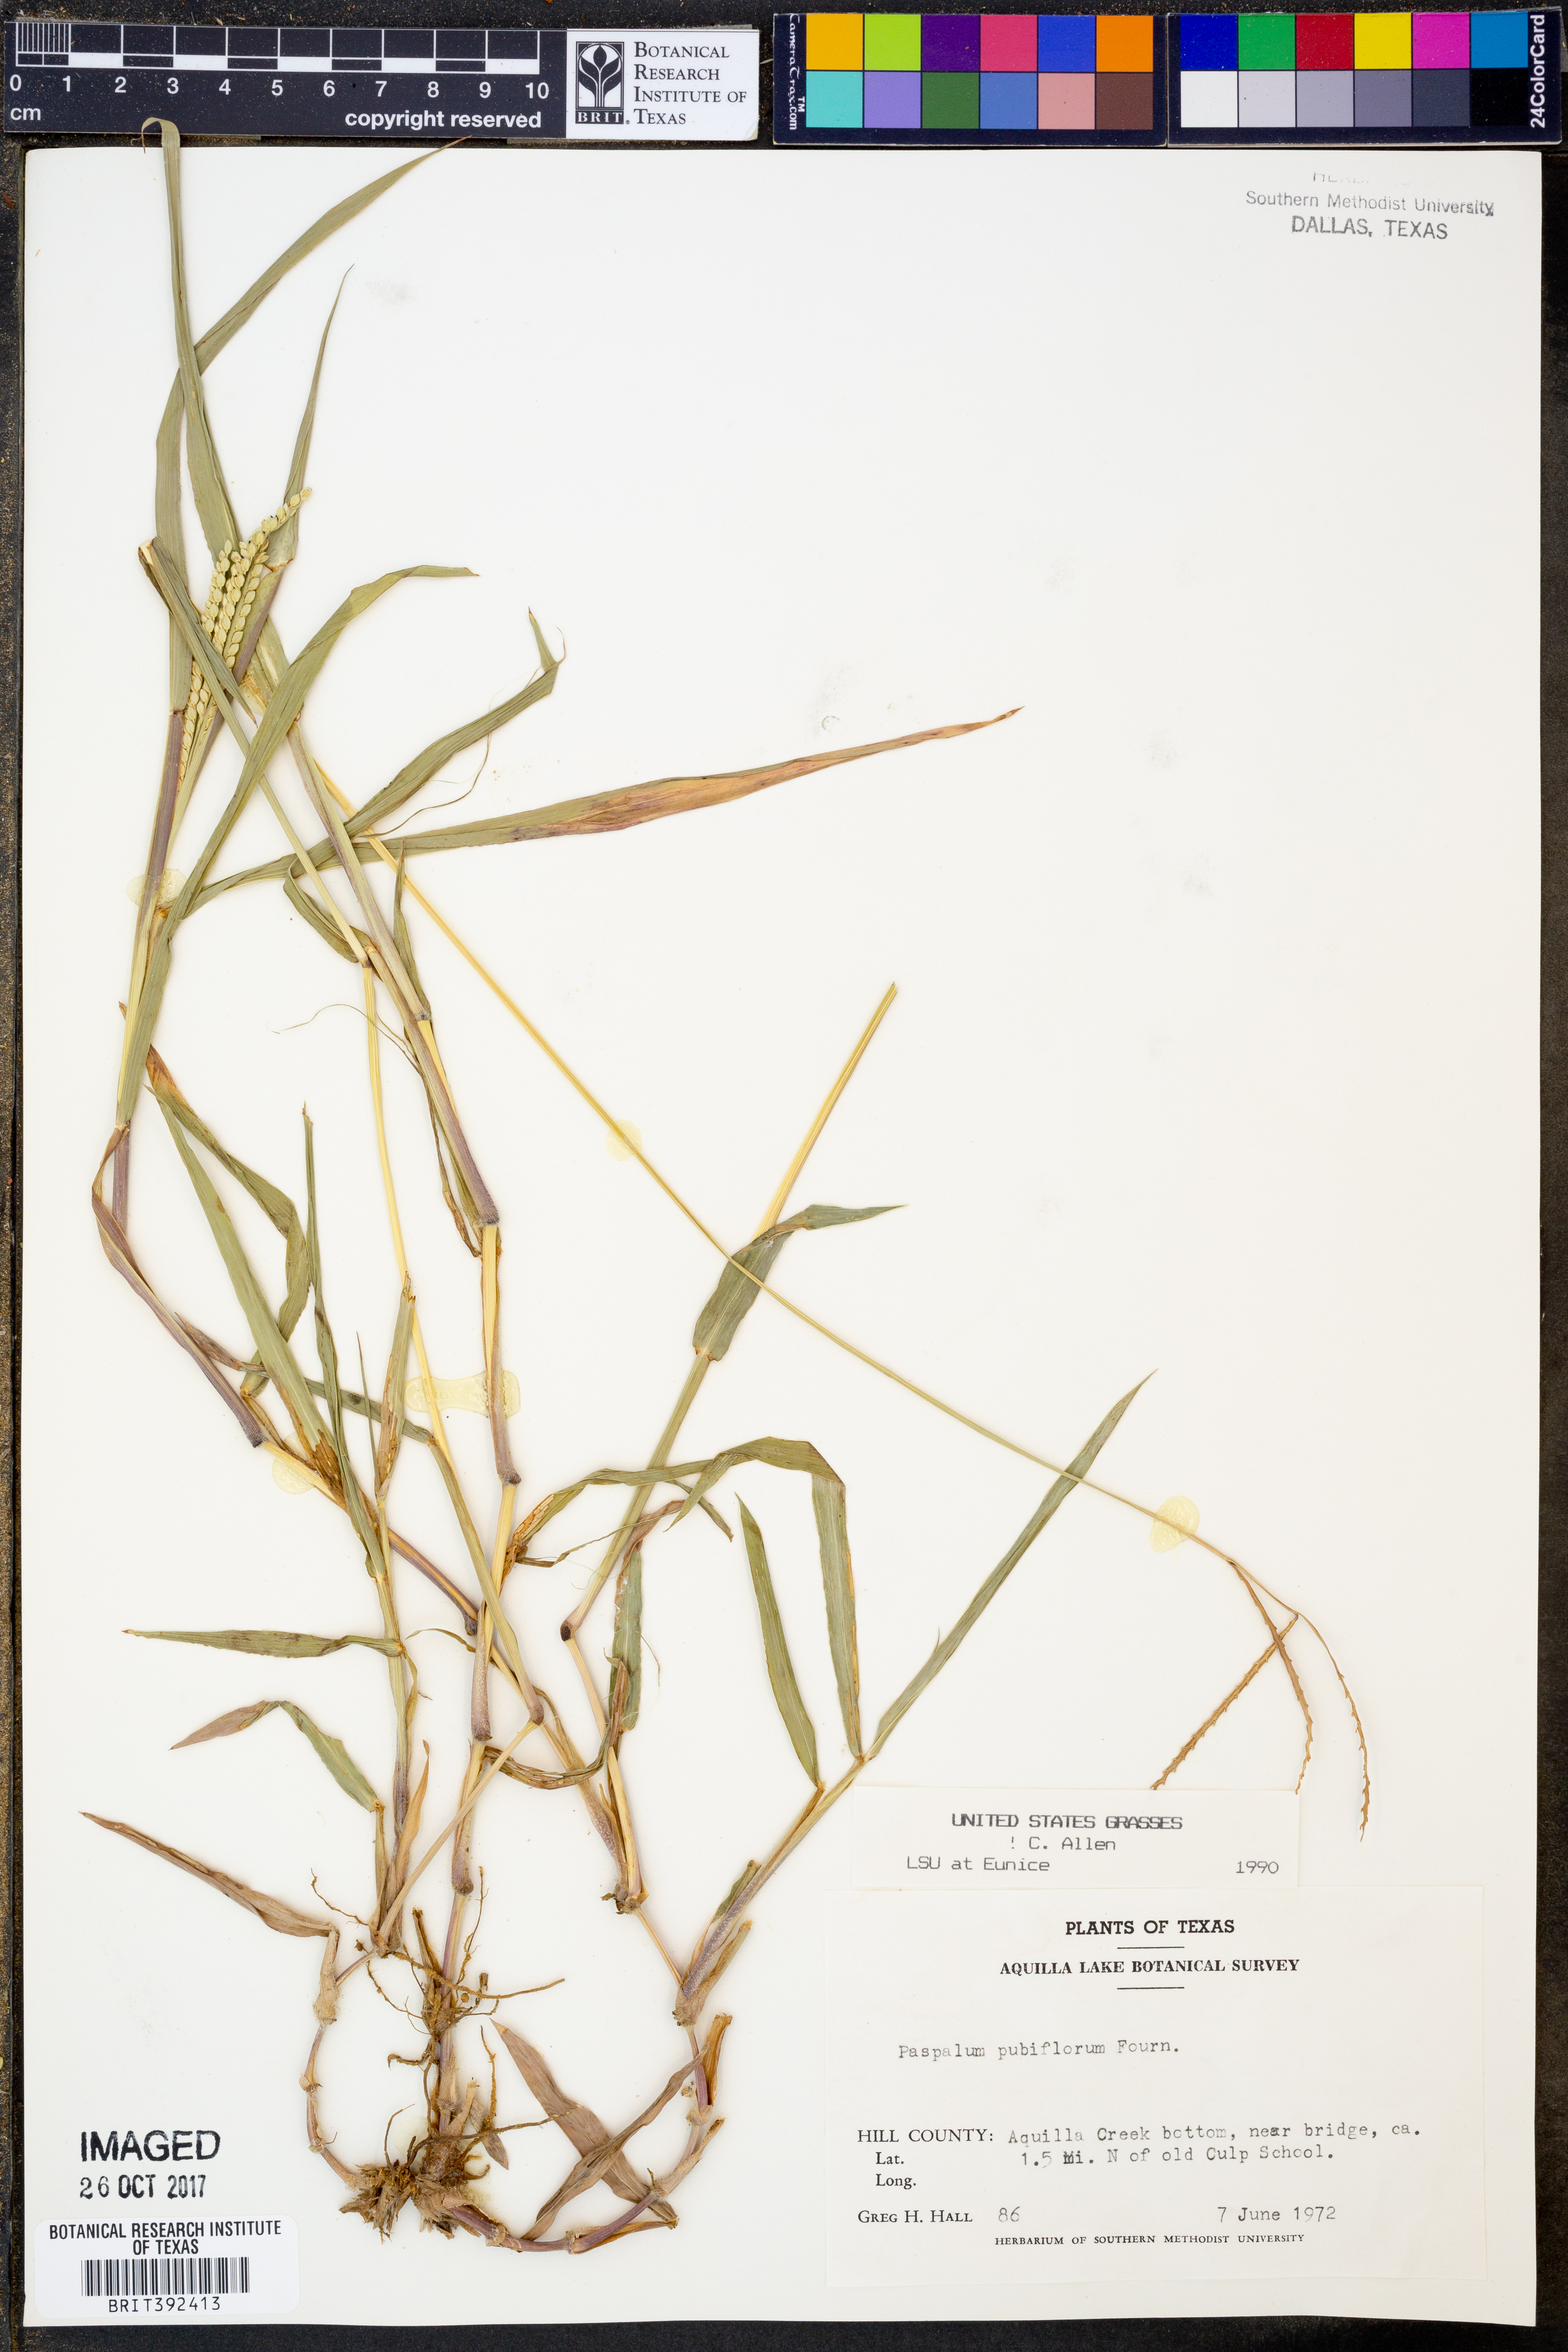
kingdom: Plantae
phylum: Tracheophyta
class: Liliopsida
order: Poales
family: Poaceae
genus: Paspalum
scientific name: Paspalum pubiflorum
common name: Hairy-seed paspalum
